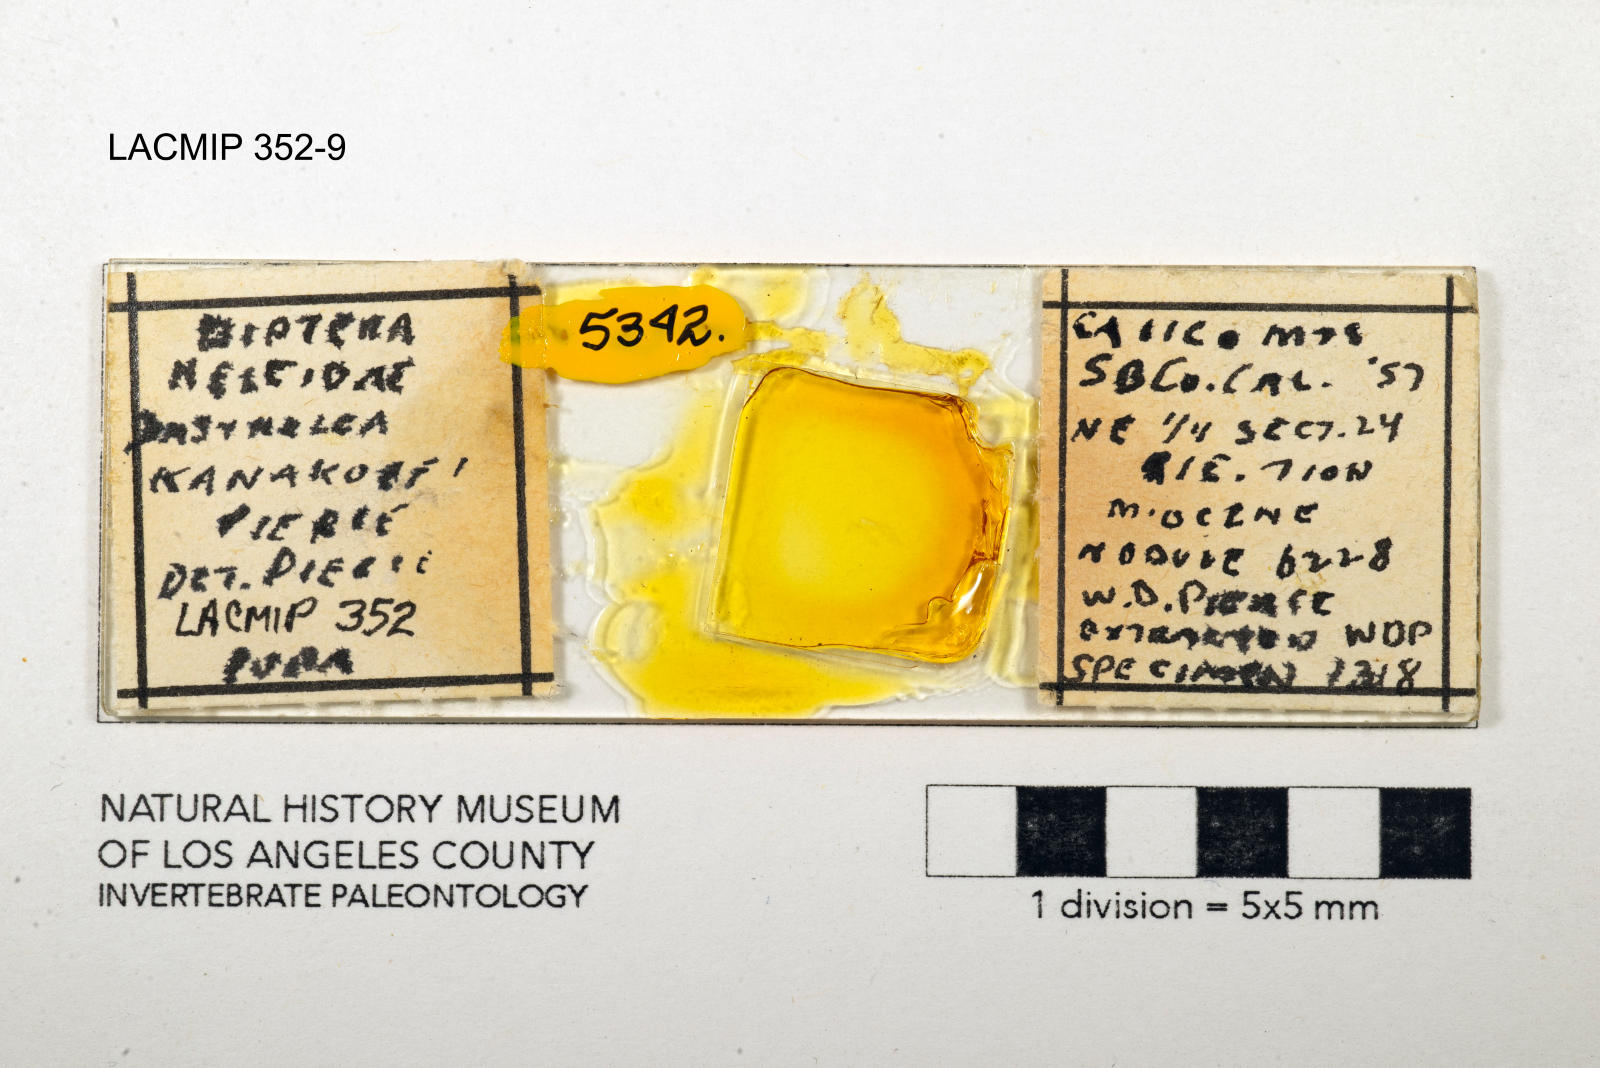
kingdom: Animalia
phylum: Arthropoda
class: Insecta
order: Diptera
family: Ceratopogonidae
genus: Dasyhelea
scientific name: Dasyhelea kanakoffi
